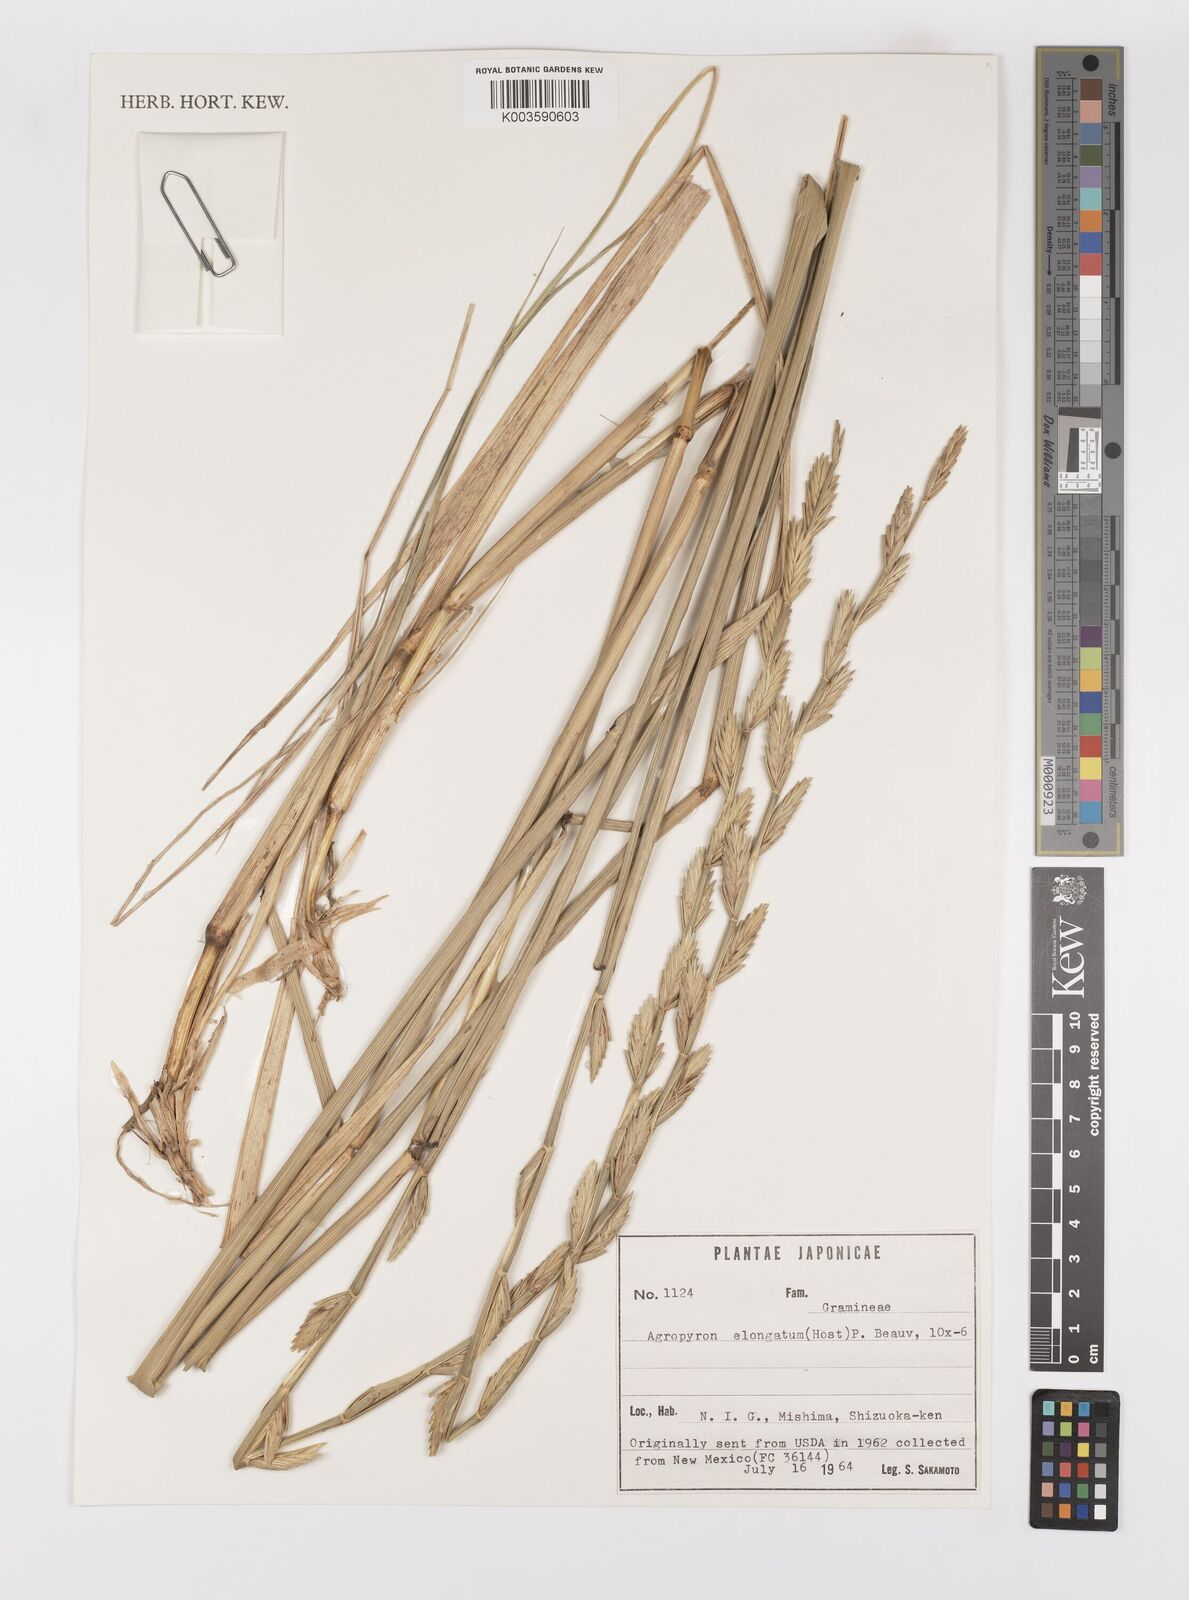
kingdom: Plantae
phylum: Tracheophyta
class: Liliopsida
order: Poales
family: Poaceae
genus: Thinopyrum
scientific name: Thinopyrum elongatum
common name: Tall wheatgrass
